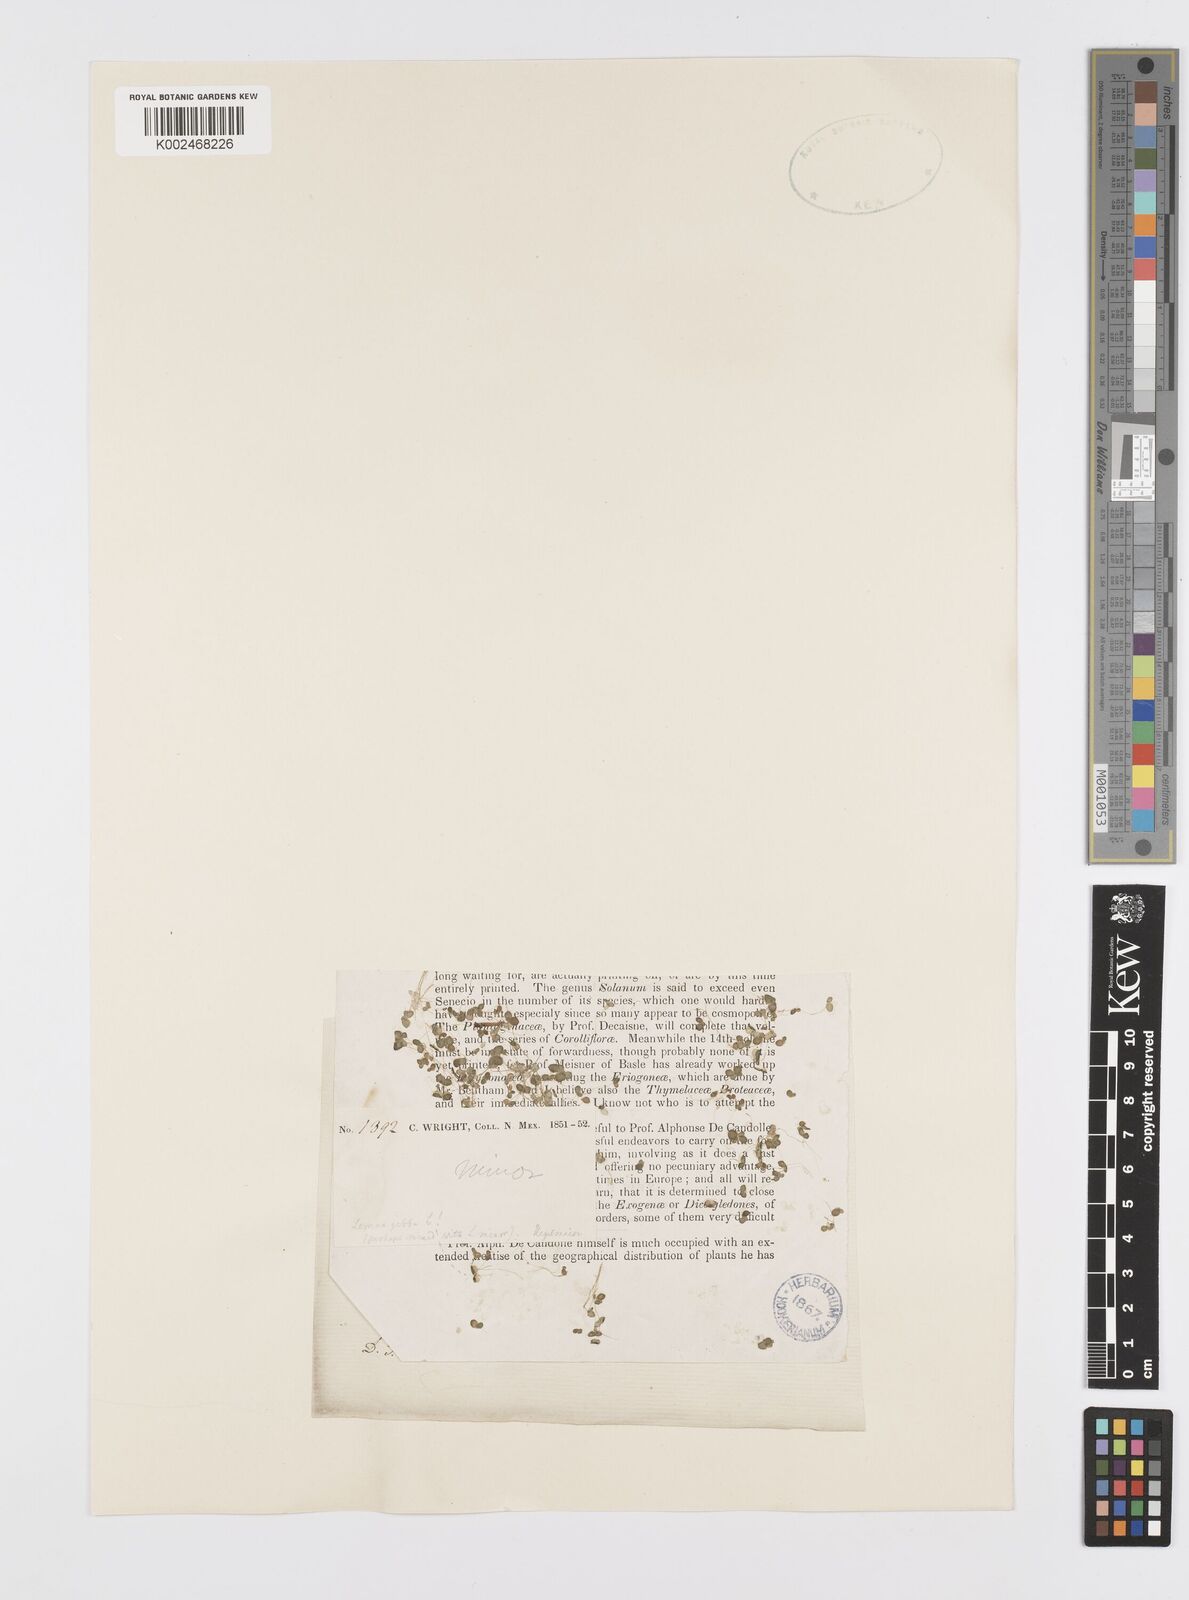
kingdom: Plantae
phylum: Tracheophyta
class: Liliopsida
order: Alismatales
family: Araceae
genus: Lemna
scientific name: Lemna minor
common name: Common duckweed
